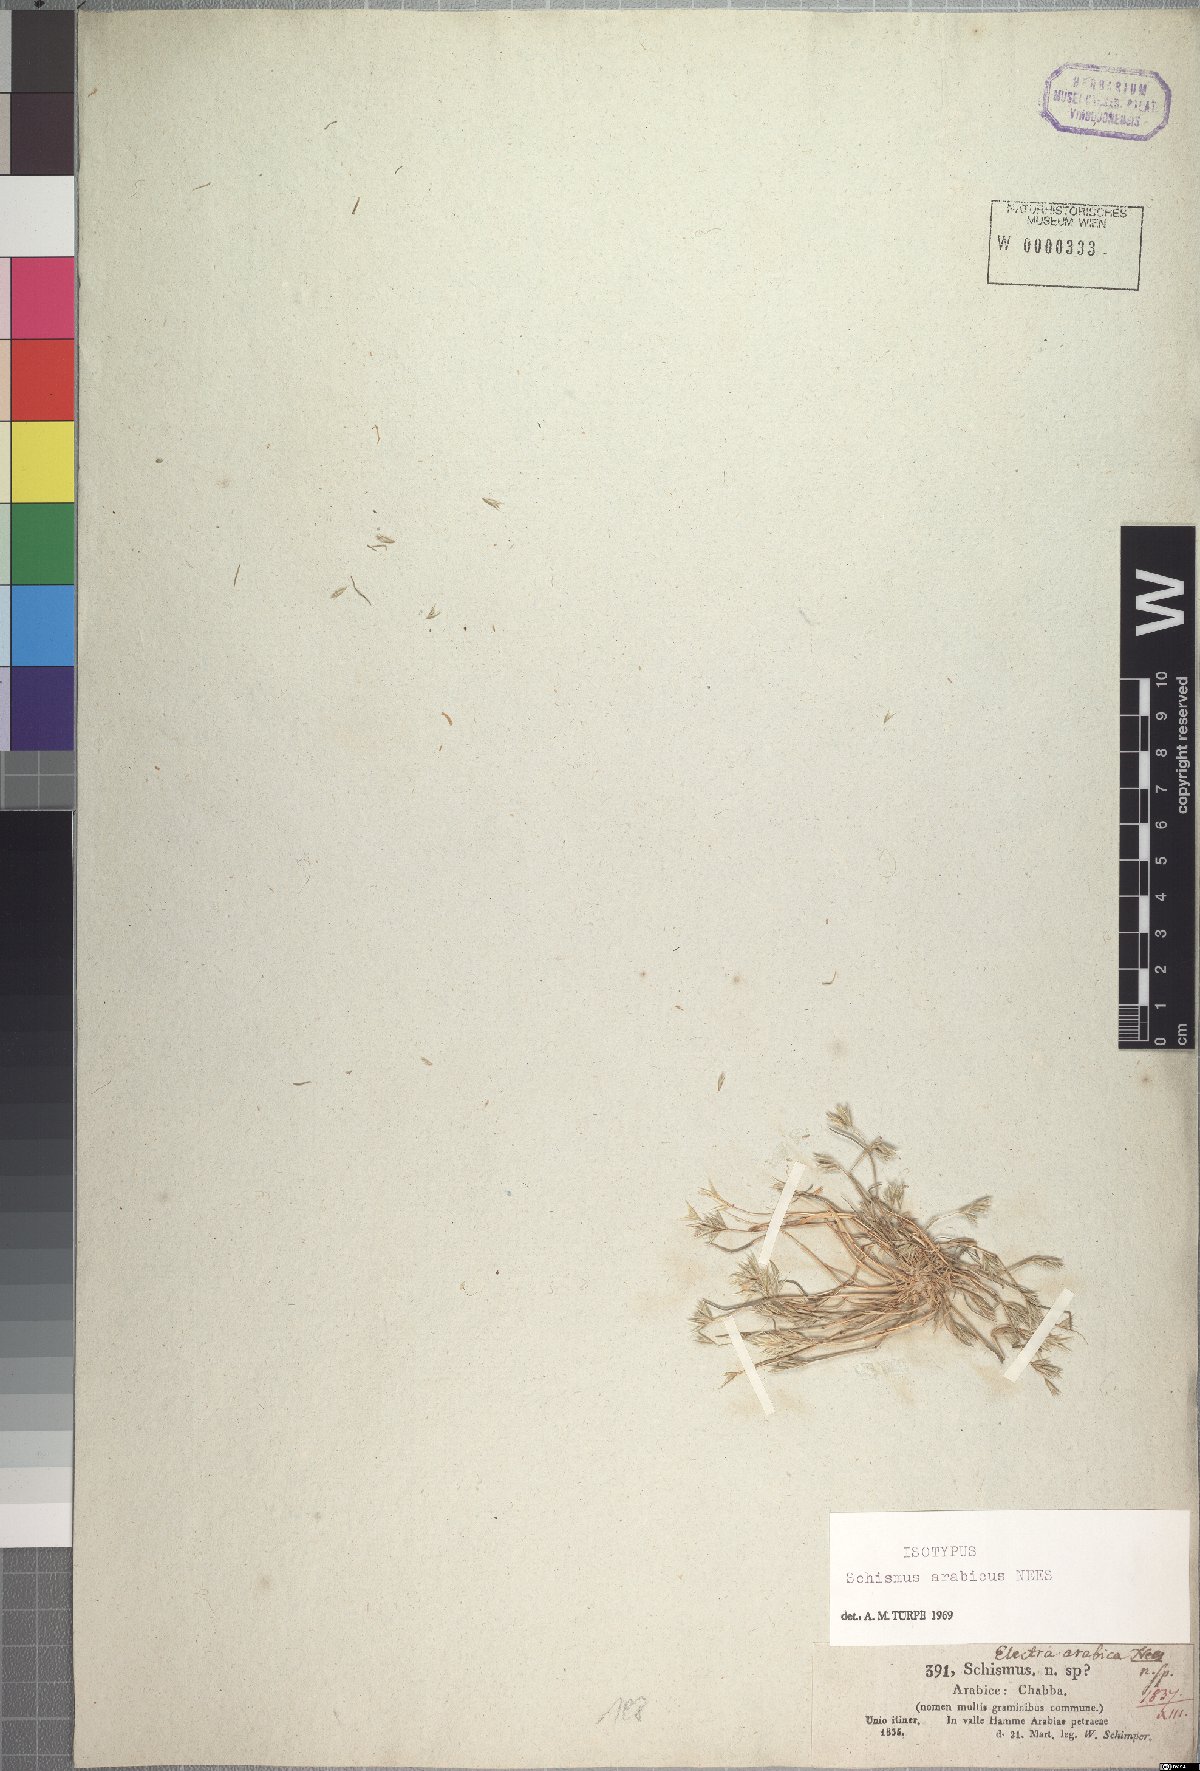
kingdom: Plantae
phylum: Tracheophyta
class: Liliopsida
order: Poales
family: Poaceae
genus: Schismus
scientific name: Schismus arabicus
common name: Arabian schismus
